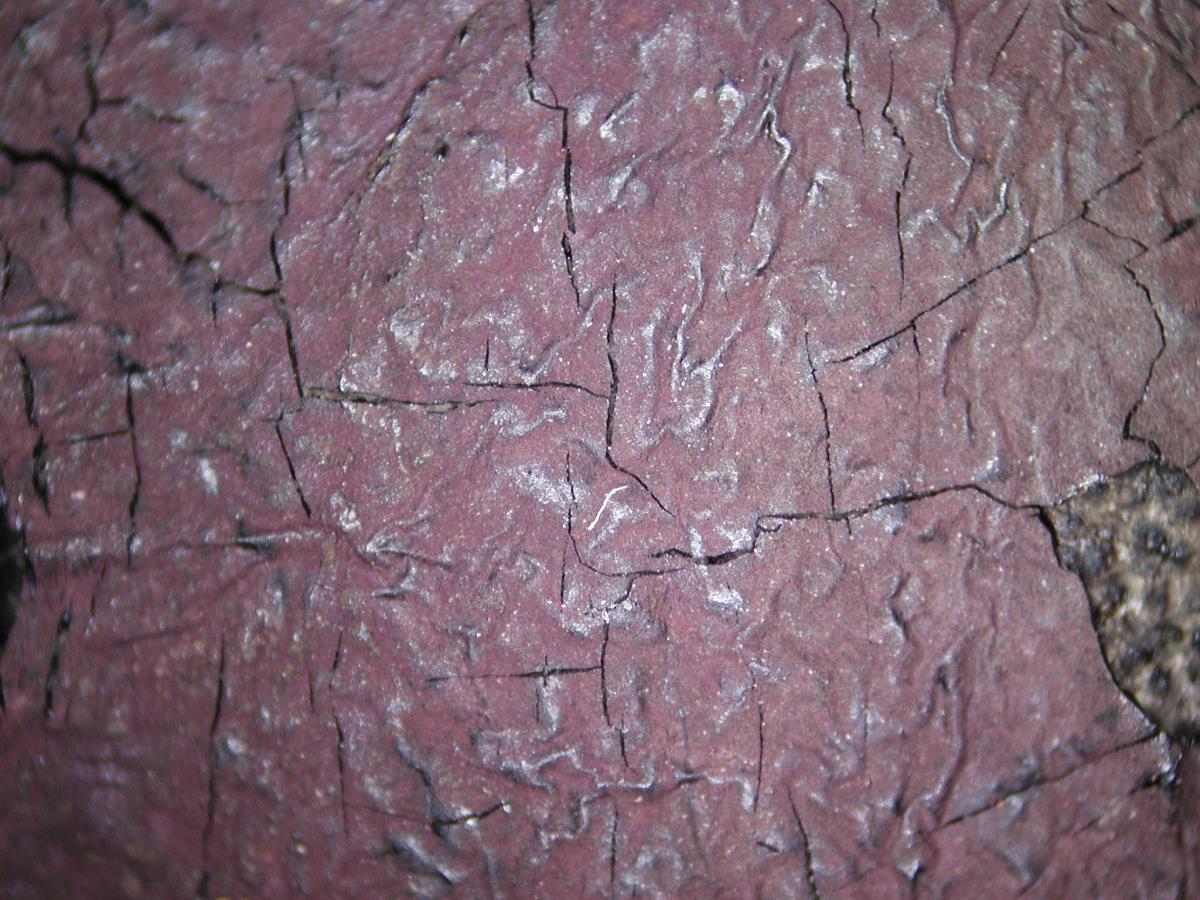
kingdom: Fungi
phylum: Ascomycota
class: Sordariomycetes
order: Xylariales
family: Hypoxylaceae
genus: Hypoxylon
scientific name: Hypoxylon placentiforme
